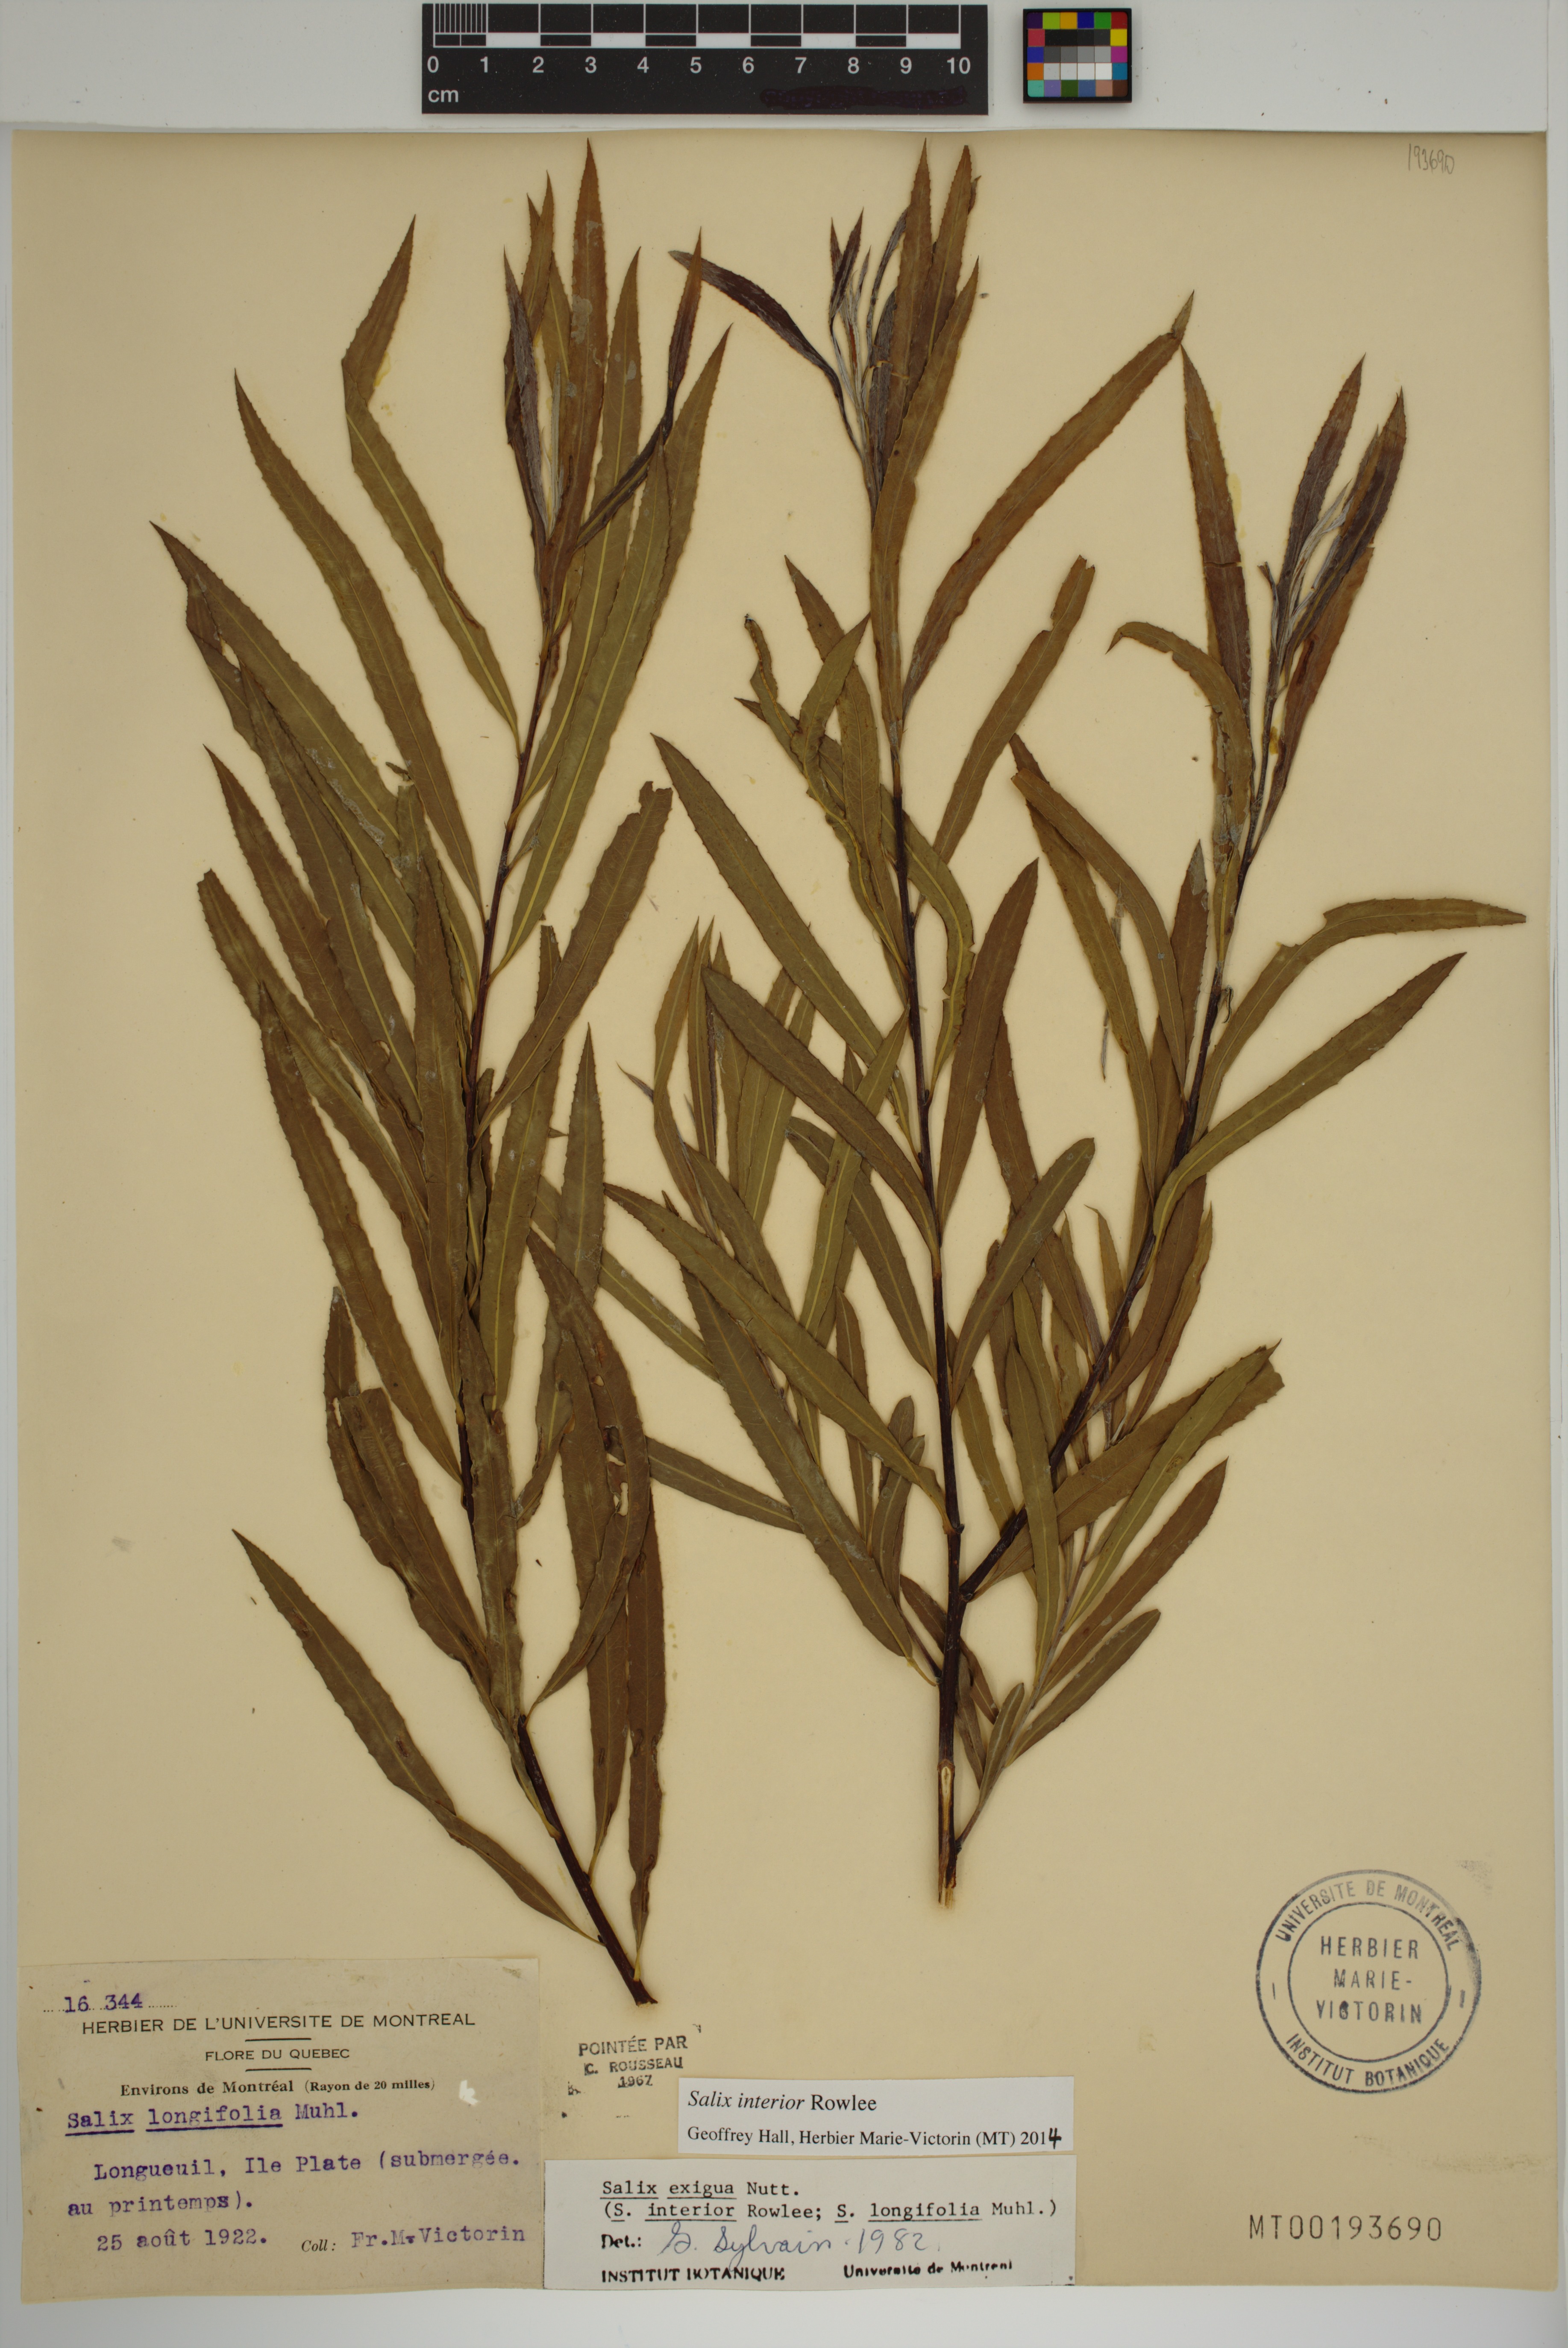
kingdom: Plantae
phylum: Tracheophyta
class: Magnoliopsida
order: Malpighiales
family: Salicaceae
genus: Salix
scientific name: Salix interior
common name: Sandbar willow
